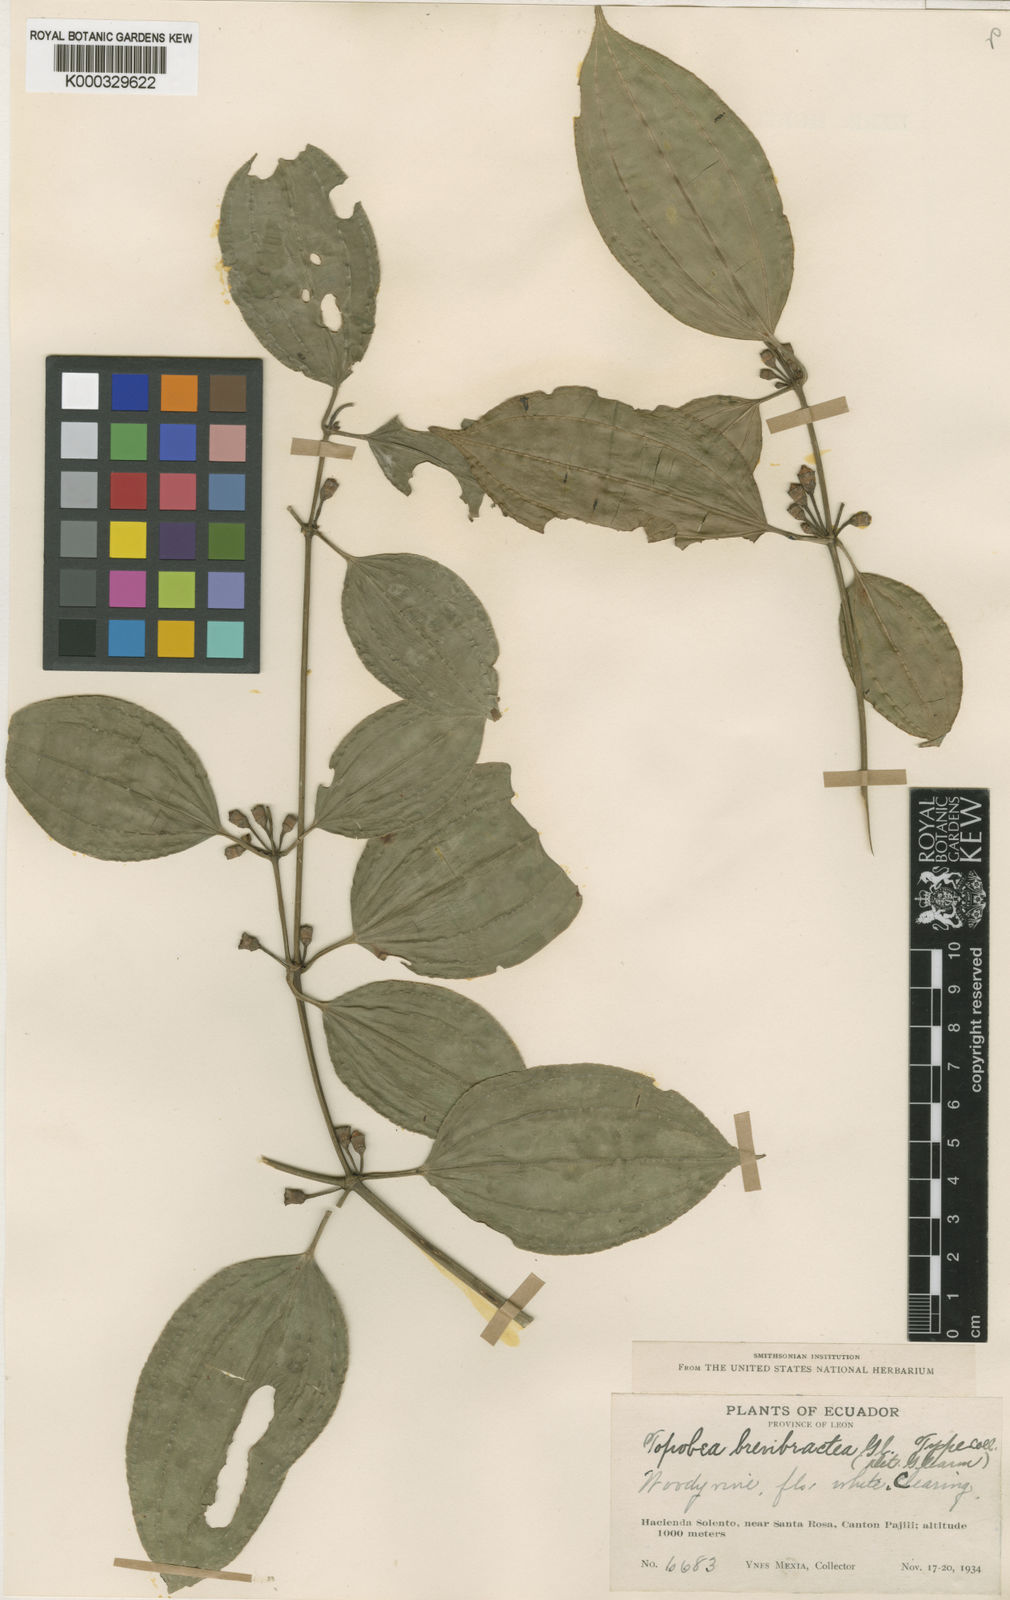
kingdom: Plantae
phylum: Tracheophyta
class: Magnoliopsida
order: Myrtales
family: Melastomataceae
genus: Blakea
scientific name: Blakea brevibractea
